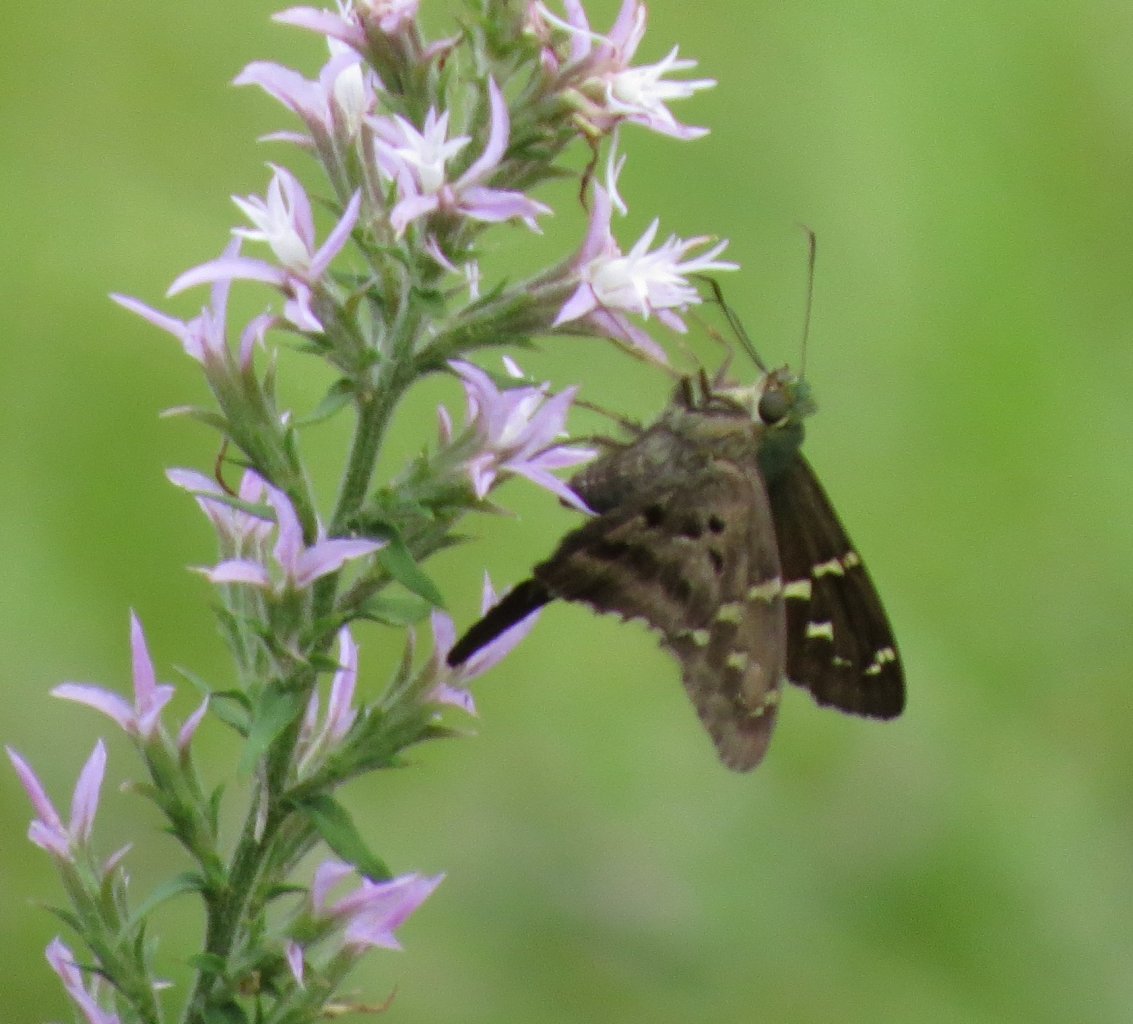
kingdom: Animalia
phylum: Arthropoda
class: Insecta
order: Lepidoptera
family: Hesperiidae
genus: Urbanus
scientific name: Urbanus proteus
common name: Long-tailed Skipper
